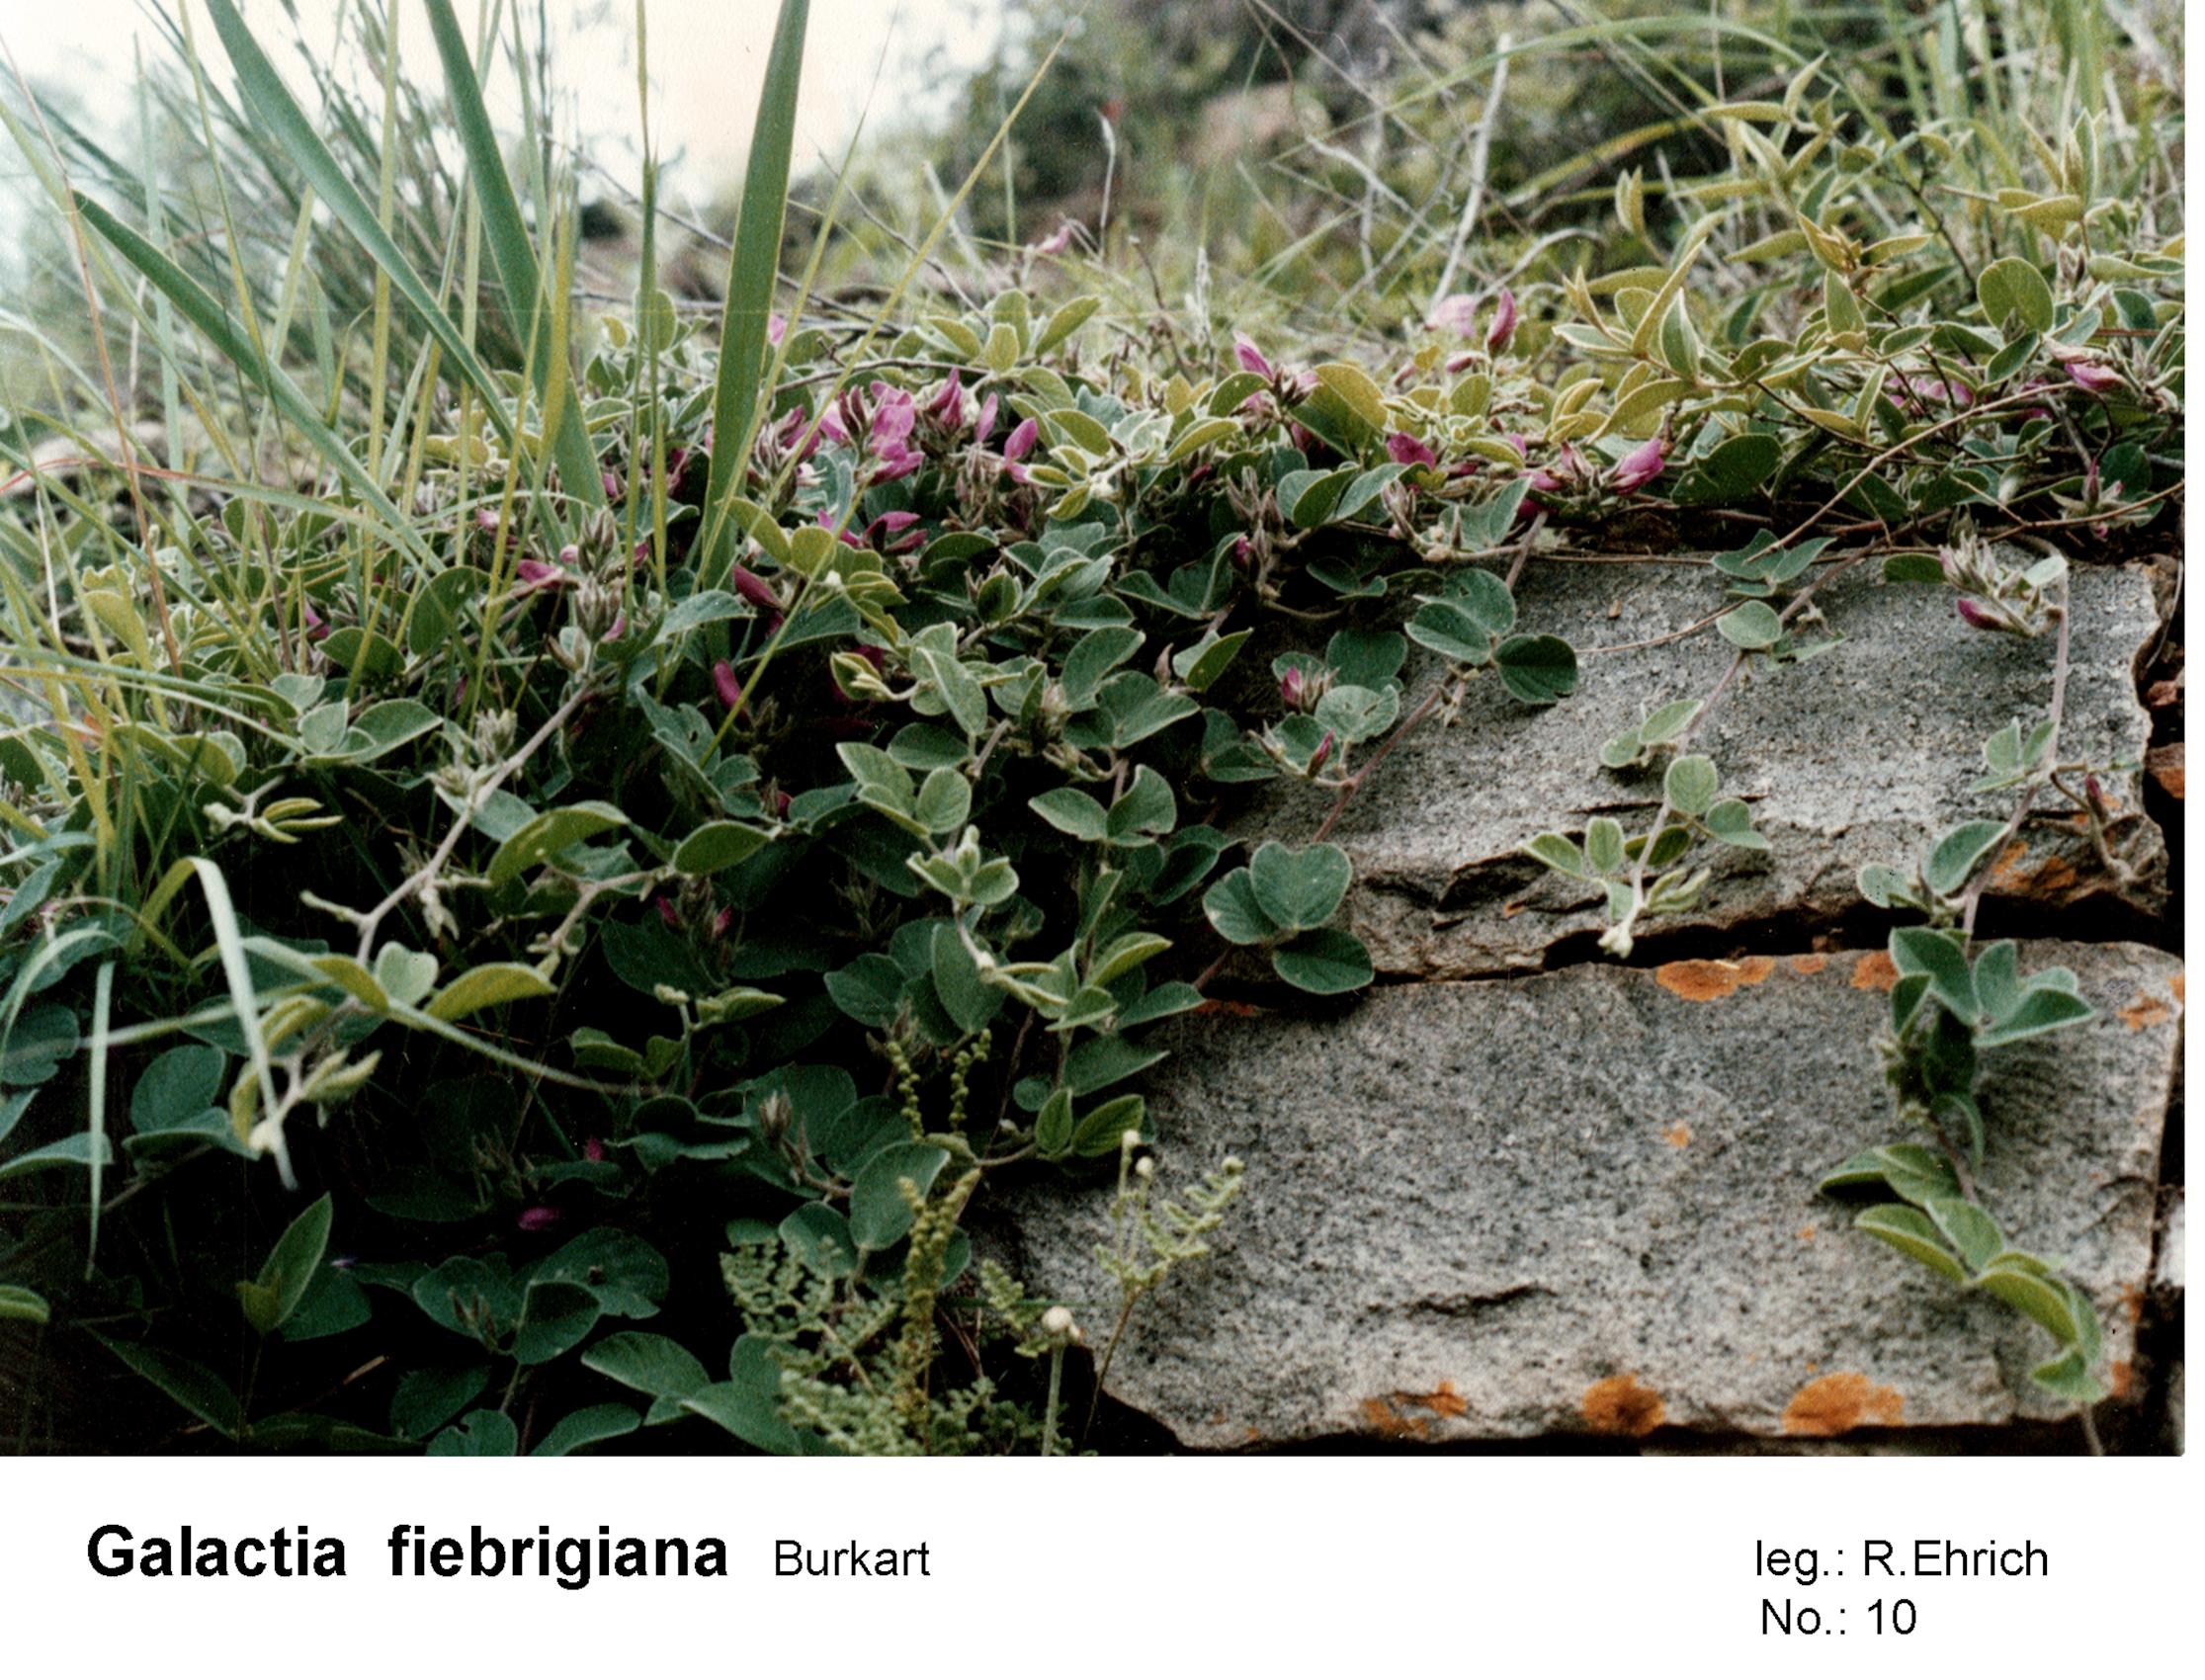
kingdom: Plantae
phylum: Tracheophyta
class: Magnoliopsida
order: Fabales
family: Fabaceae
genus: Galactia
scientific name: Galactia fiebrigiana
